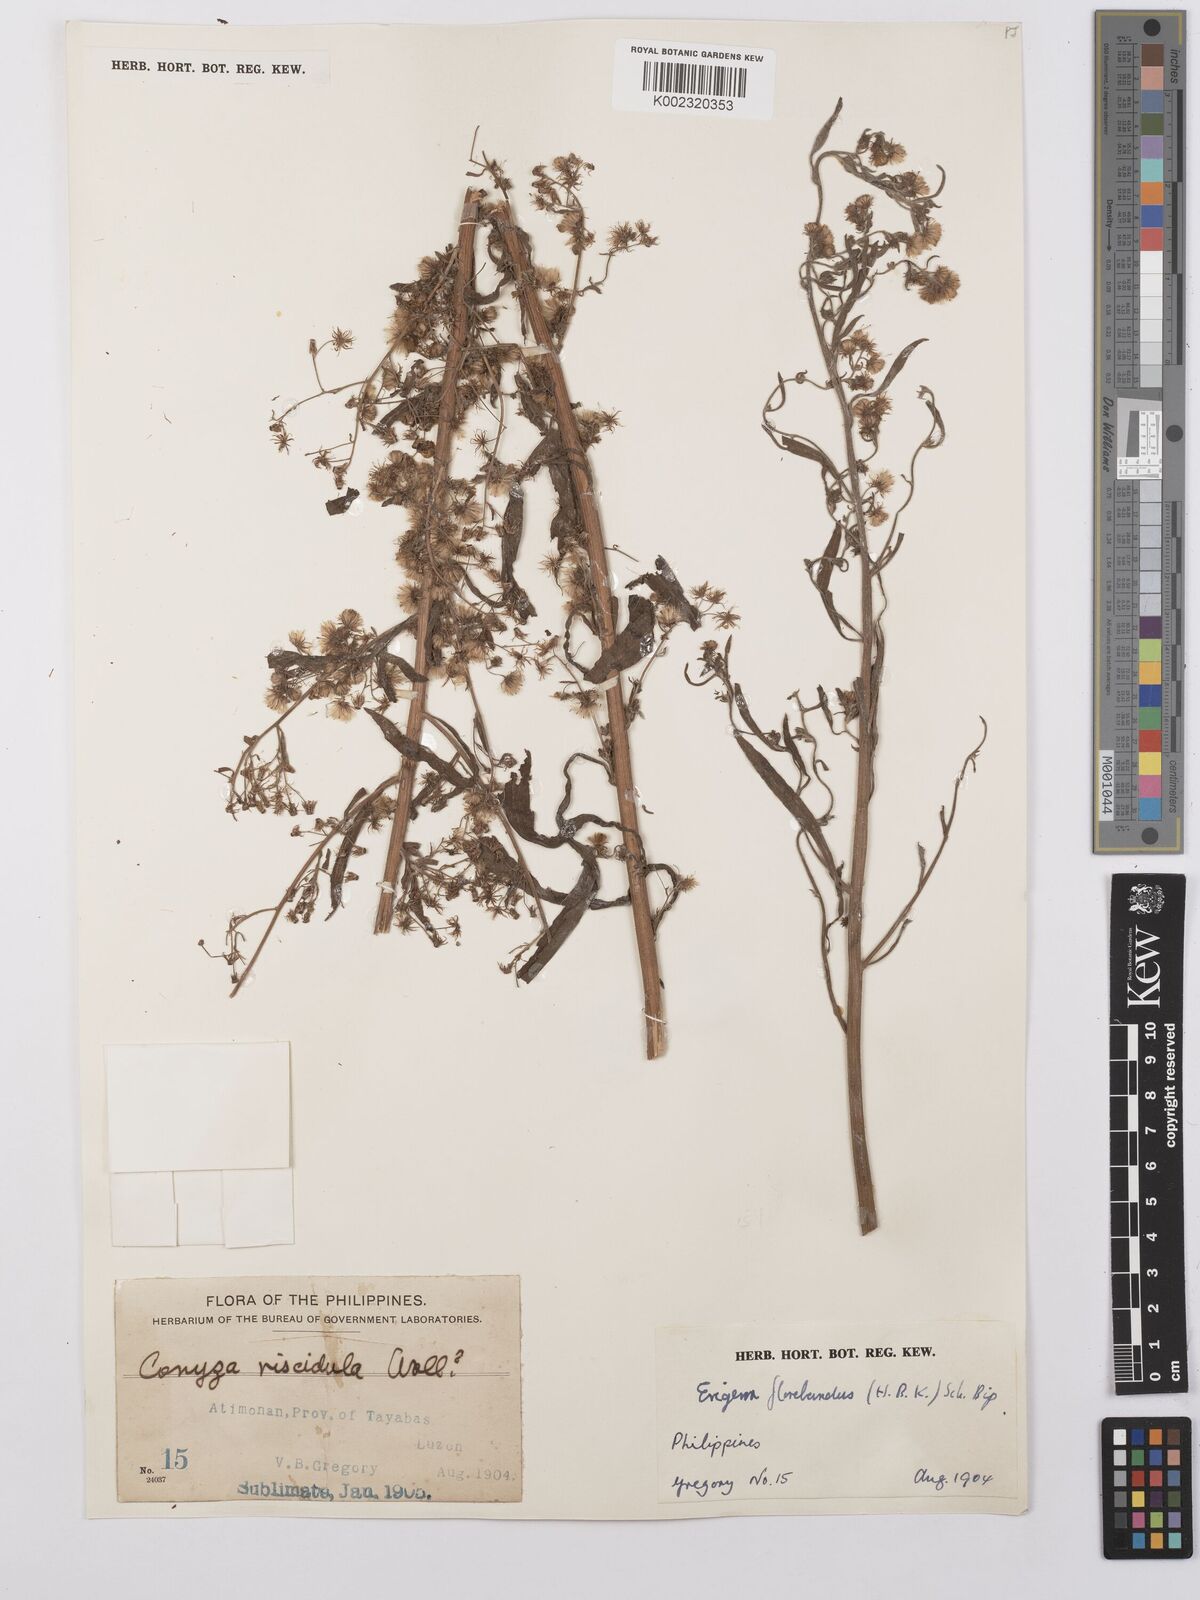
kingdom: Plantae
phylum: Tracheophyta
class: Magnoliopsida
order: Asterales
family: Asteraceae
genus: Erigeron
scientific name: Erigeron sumatrensis
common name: Daisy
